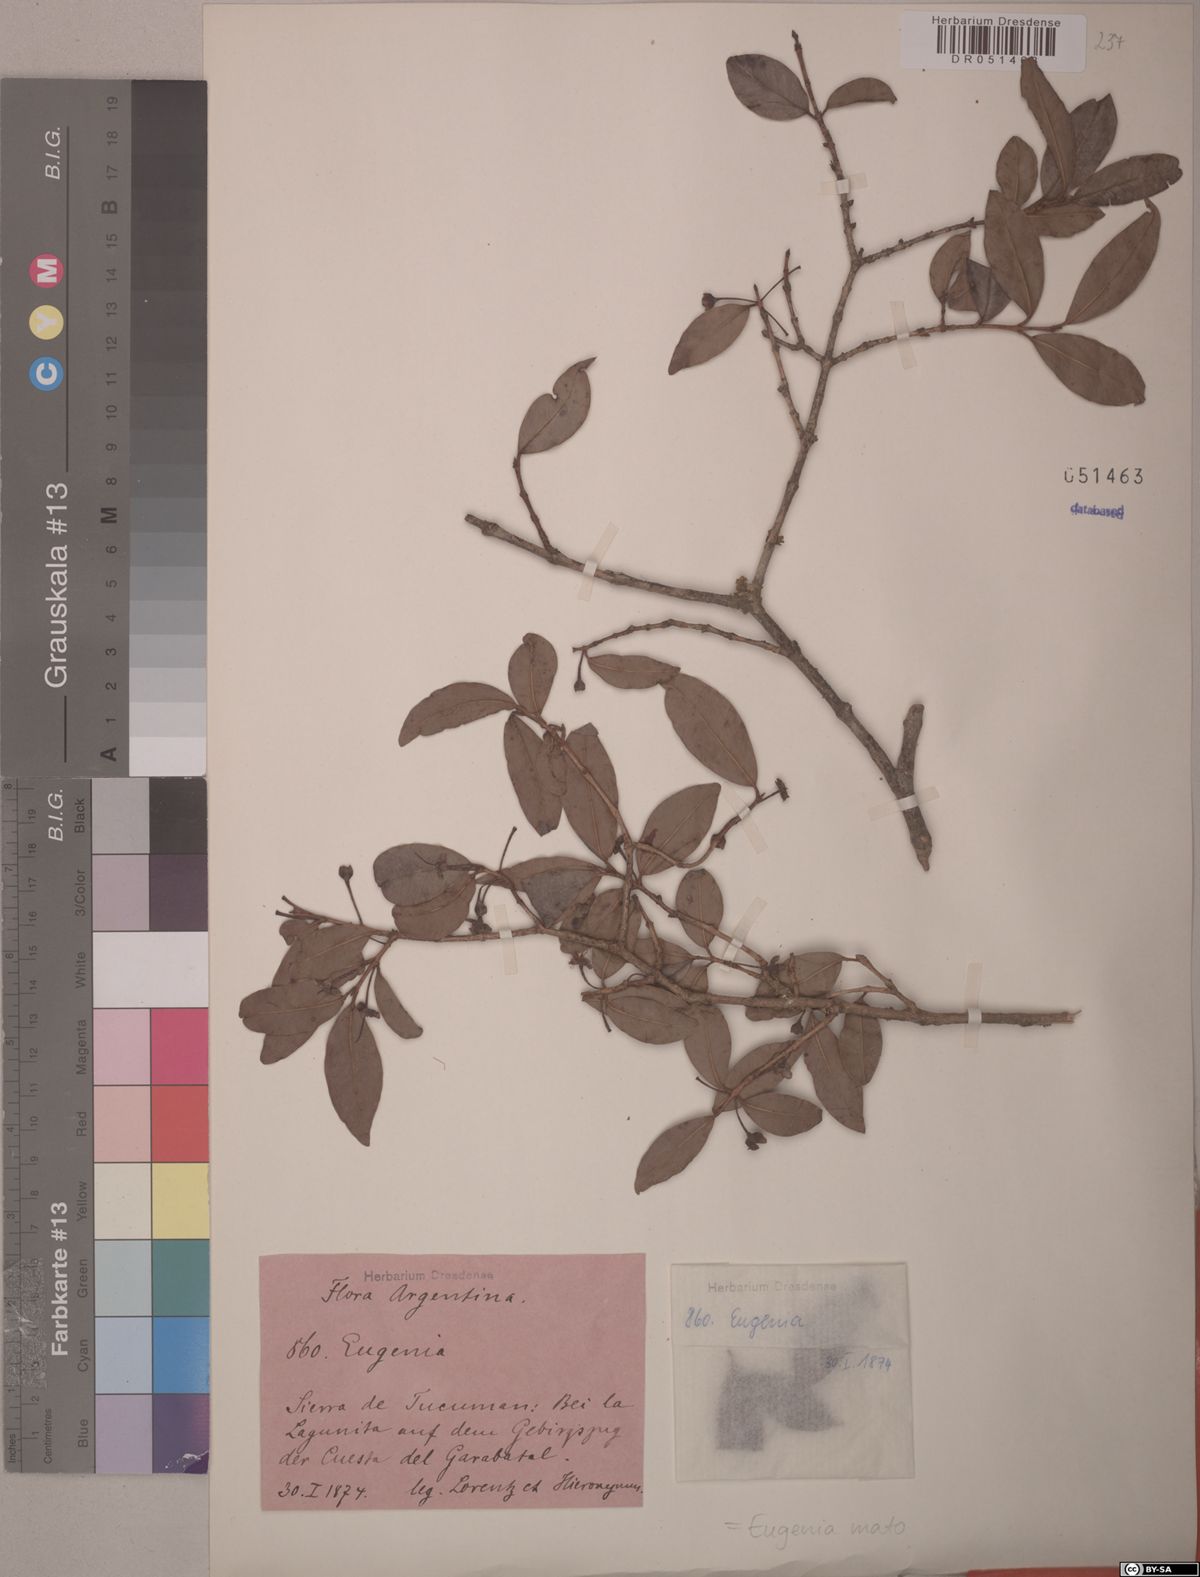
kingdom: Plantae
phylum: Tracheophyta
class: Magnoliopsida
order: Myrtales
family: Myrtaceae
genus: Myrcianthes
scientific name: Myrcianthes mato
